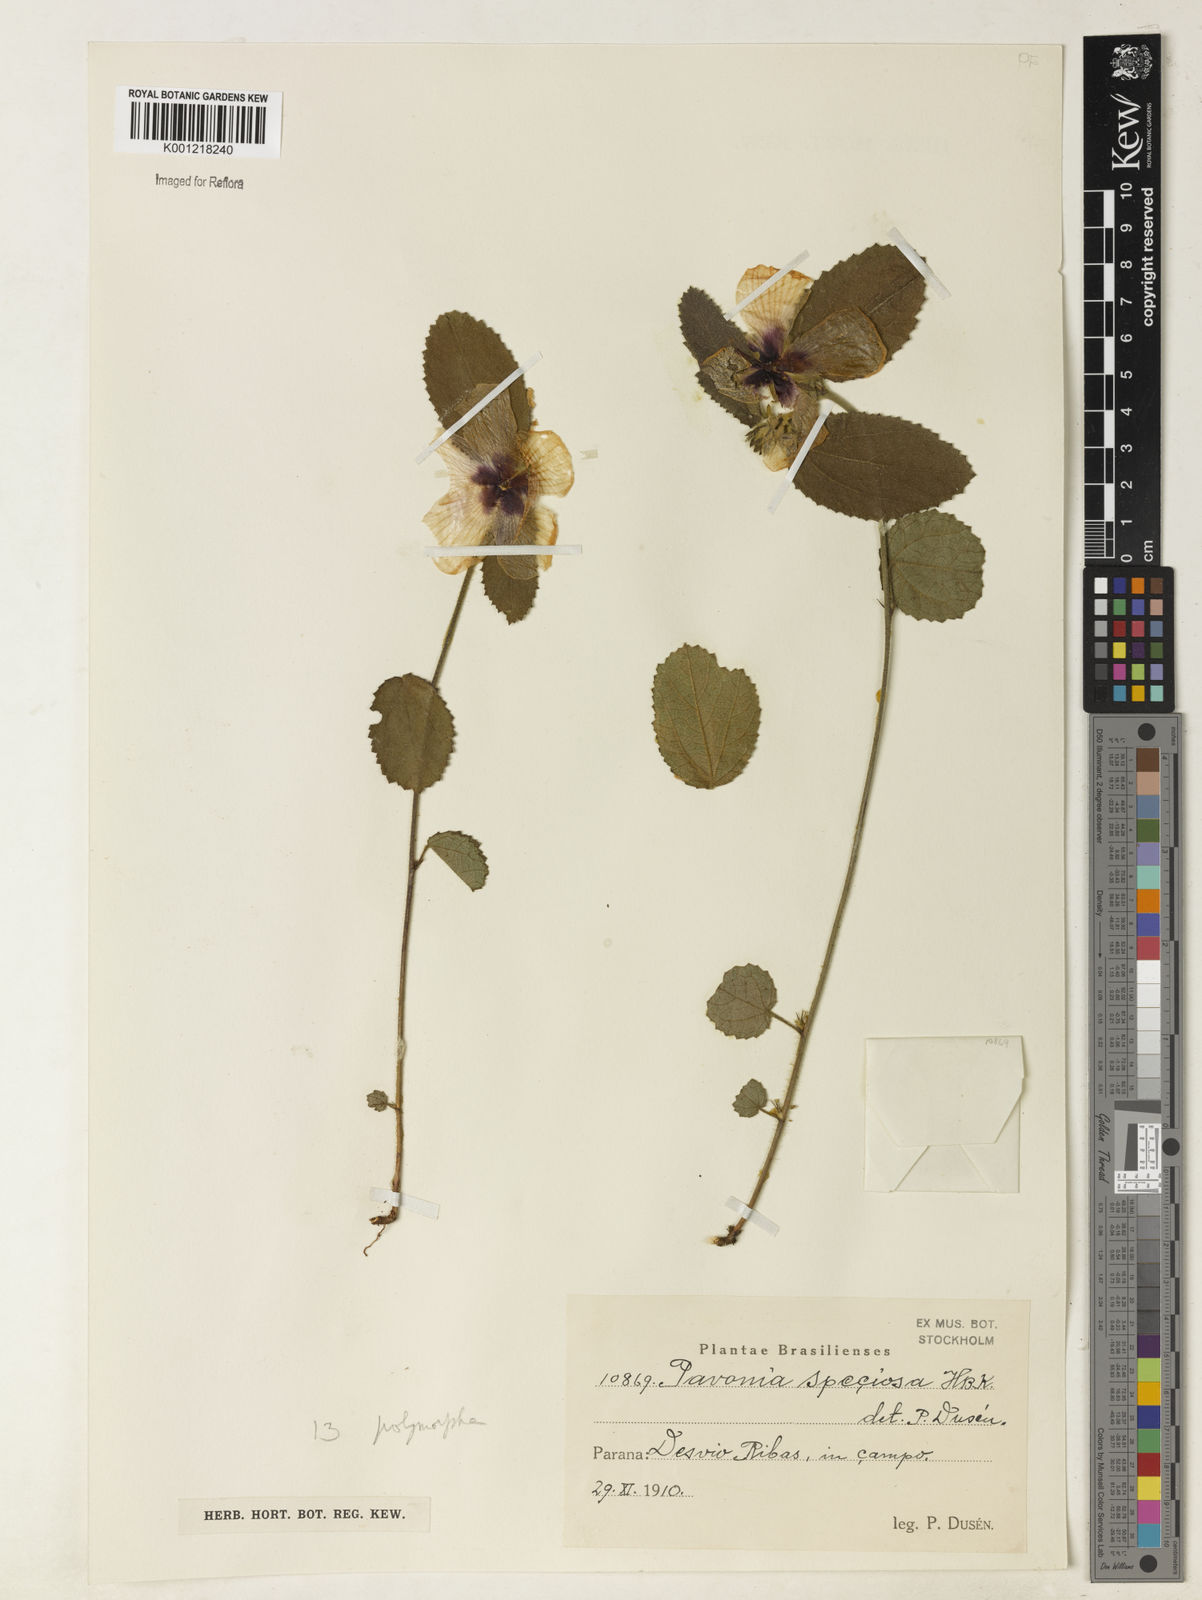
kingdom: Plantae
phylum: Tracheophyta
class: Magnoliopsida
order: Malvales
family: Malvaceae
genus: Peltaea
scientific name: Peltaea
